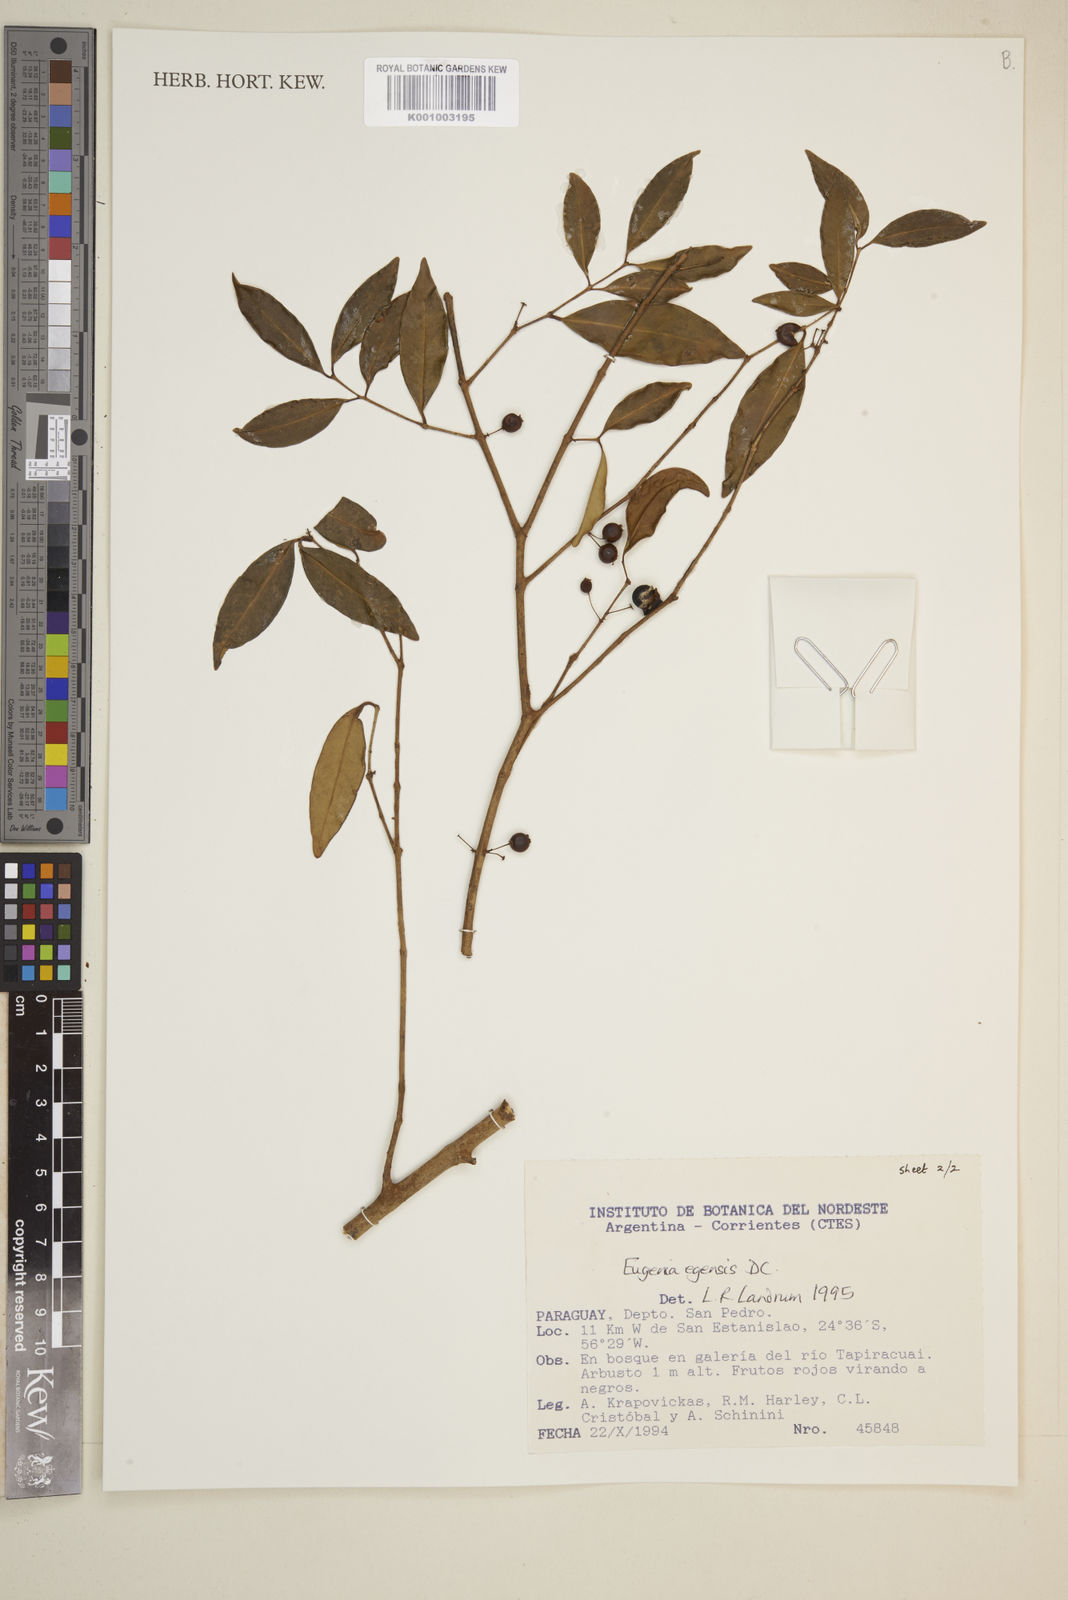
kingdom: Plantae
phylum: Tracheophyta
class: Magnoliopsida
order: Myrtales
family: Myrtaceae
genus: Eugenia
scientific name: Eugenia egensis
